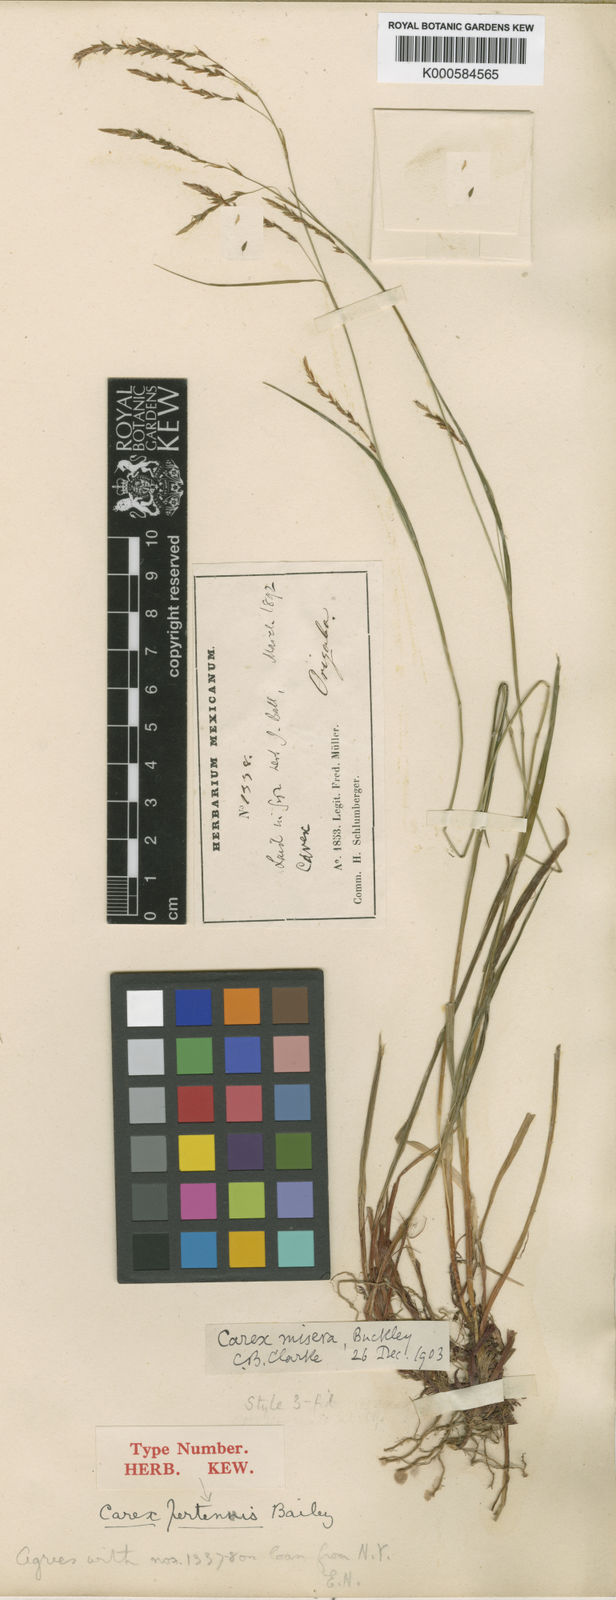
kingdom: Plantae
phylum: Tracheophyta
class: Liliopsida
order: Poales
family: Cyperaceae
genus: Carex
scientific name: Carex
